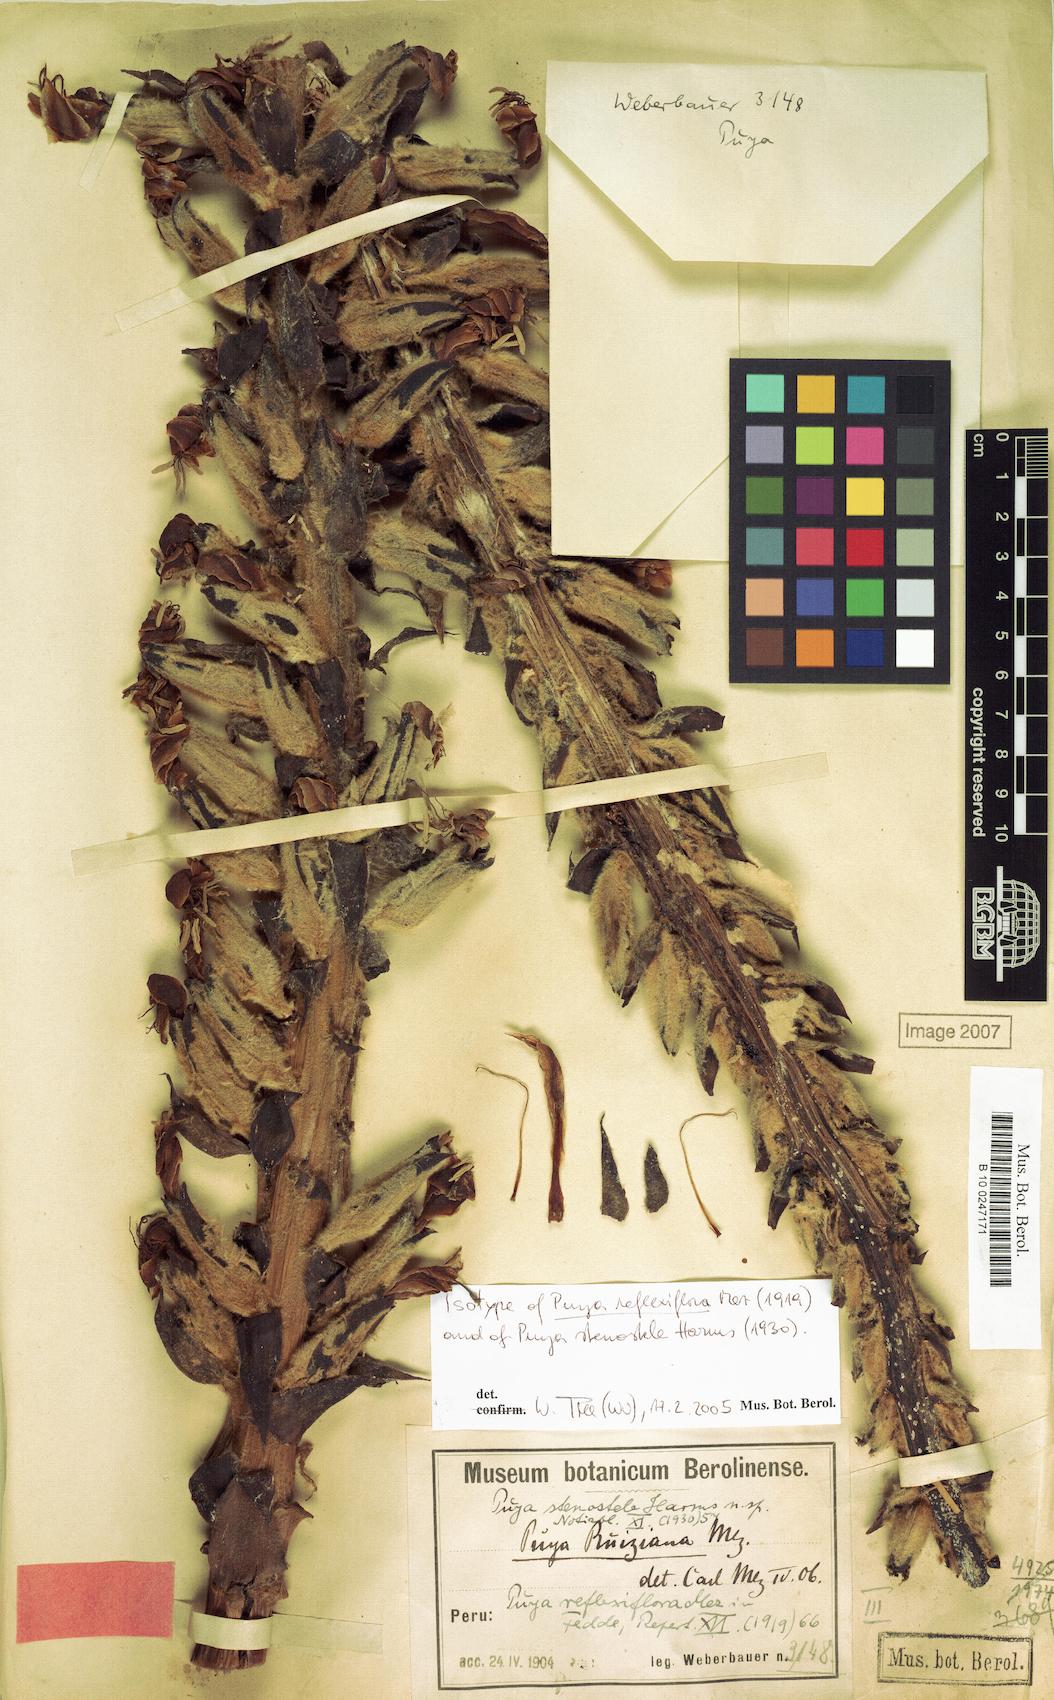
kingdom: Plantae
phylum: Tracheophyta
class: Liliopsida
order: Poales
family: Bromeliaceae
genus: Puya
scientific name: Puya reflexiflora
